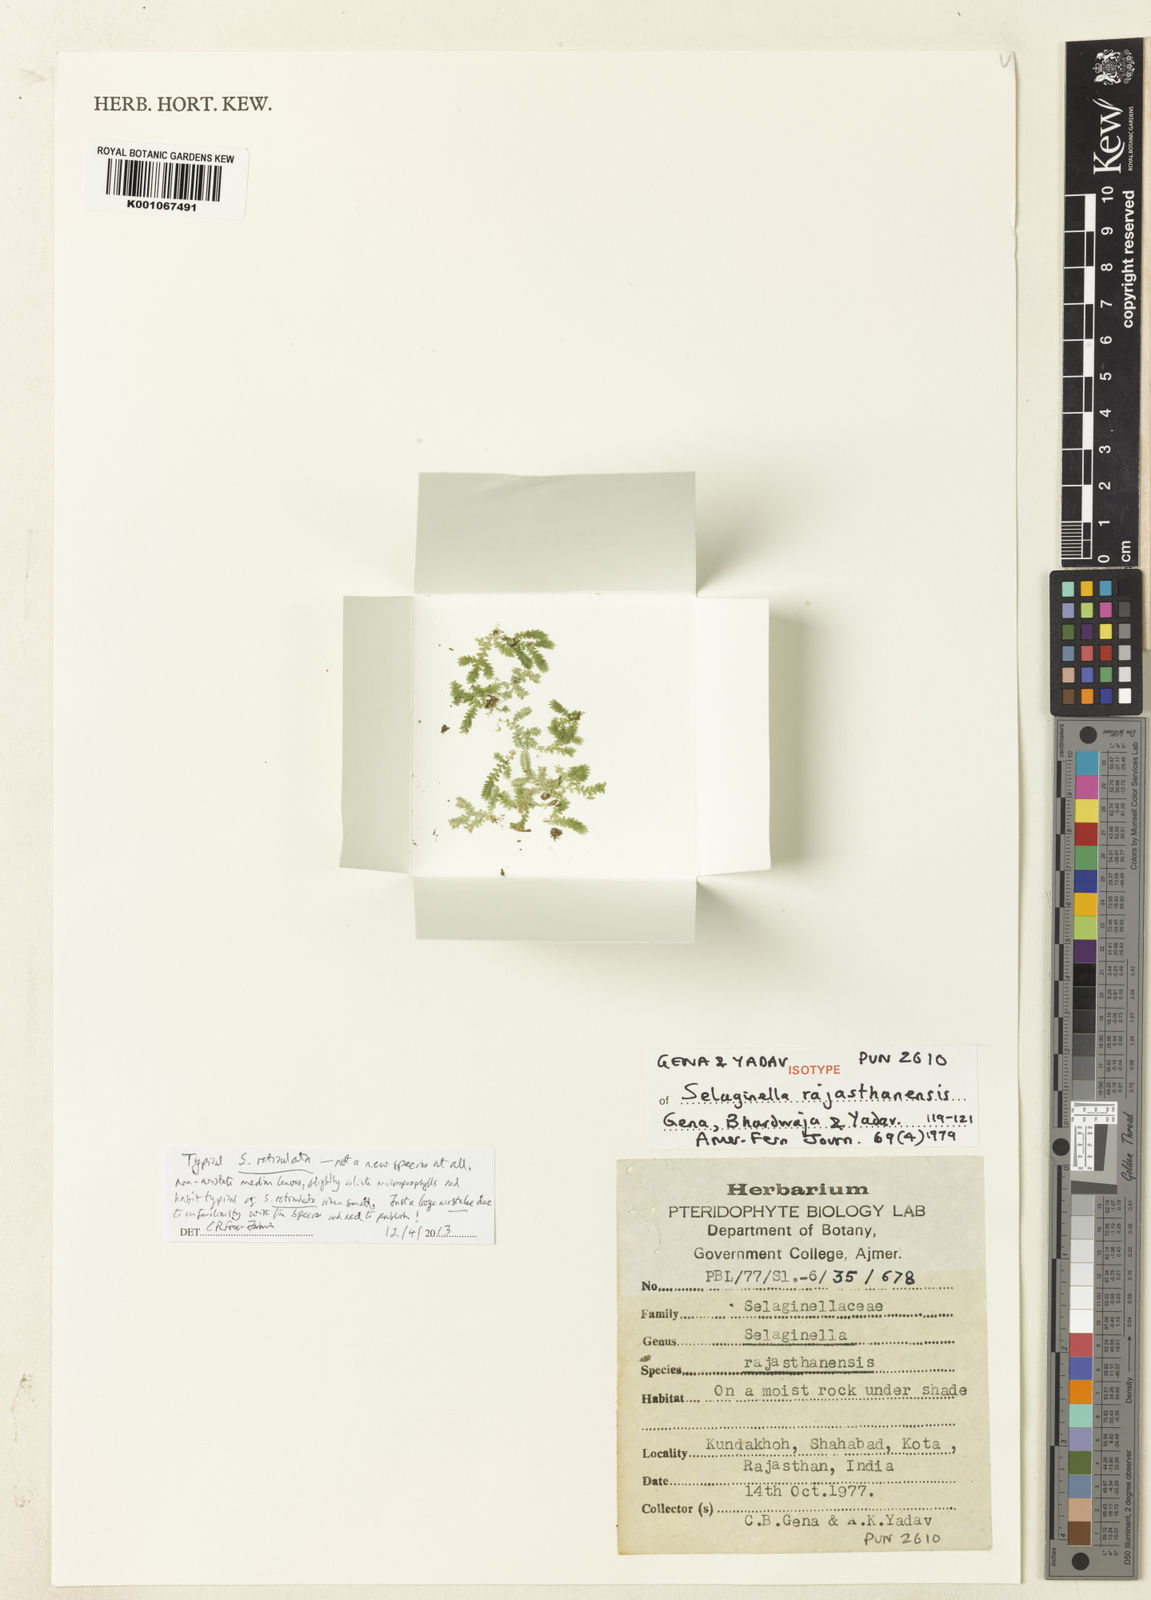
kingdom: Plantae
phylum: Tracheophyta
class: Lycopodiopsida
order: Selaginellales
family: Selaginellaceae
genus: Selaginella
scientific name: Selaginella
